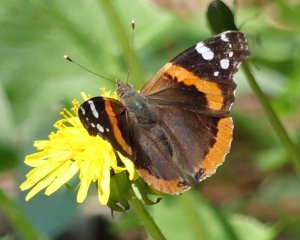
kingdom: Animalia
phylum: Arthropoda
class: Insecta
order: Lepidoptera
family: Nymphalidae
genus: Vanessa
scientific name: Vanessa atalanta
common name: Red Admiral
